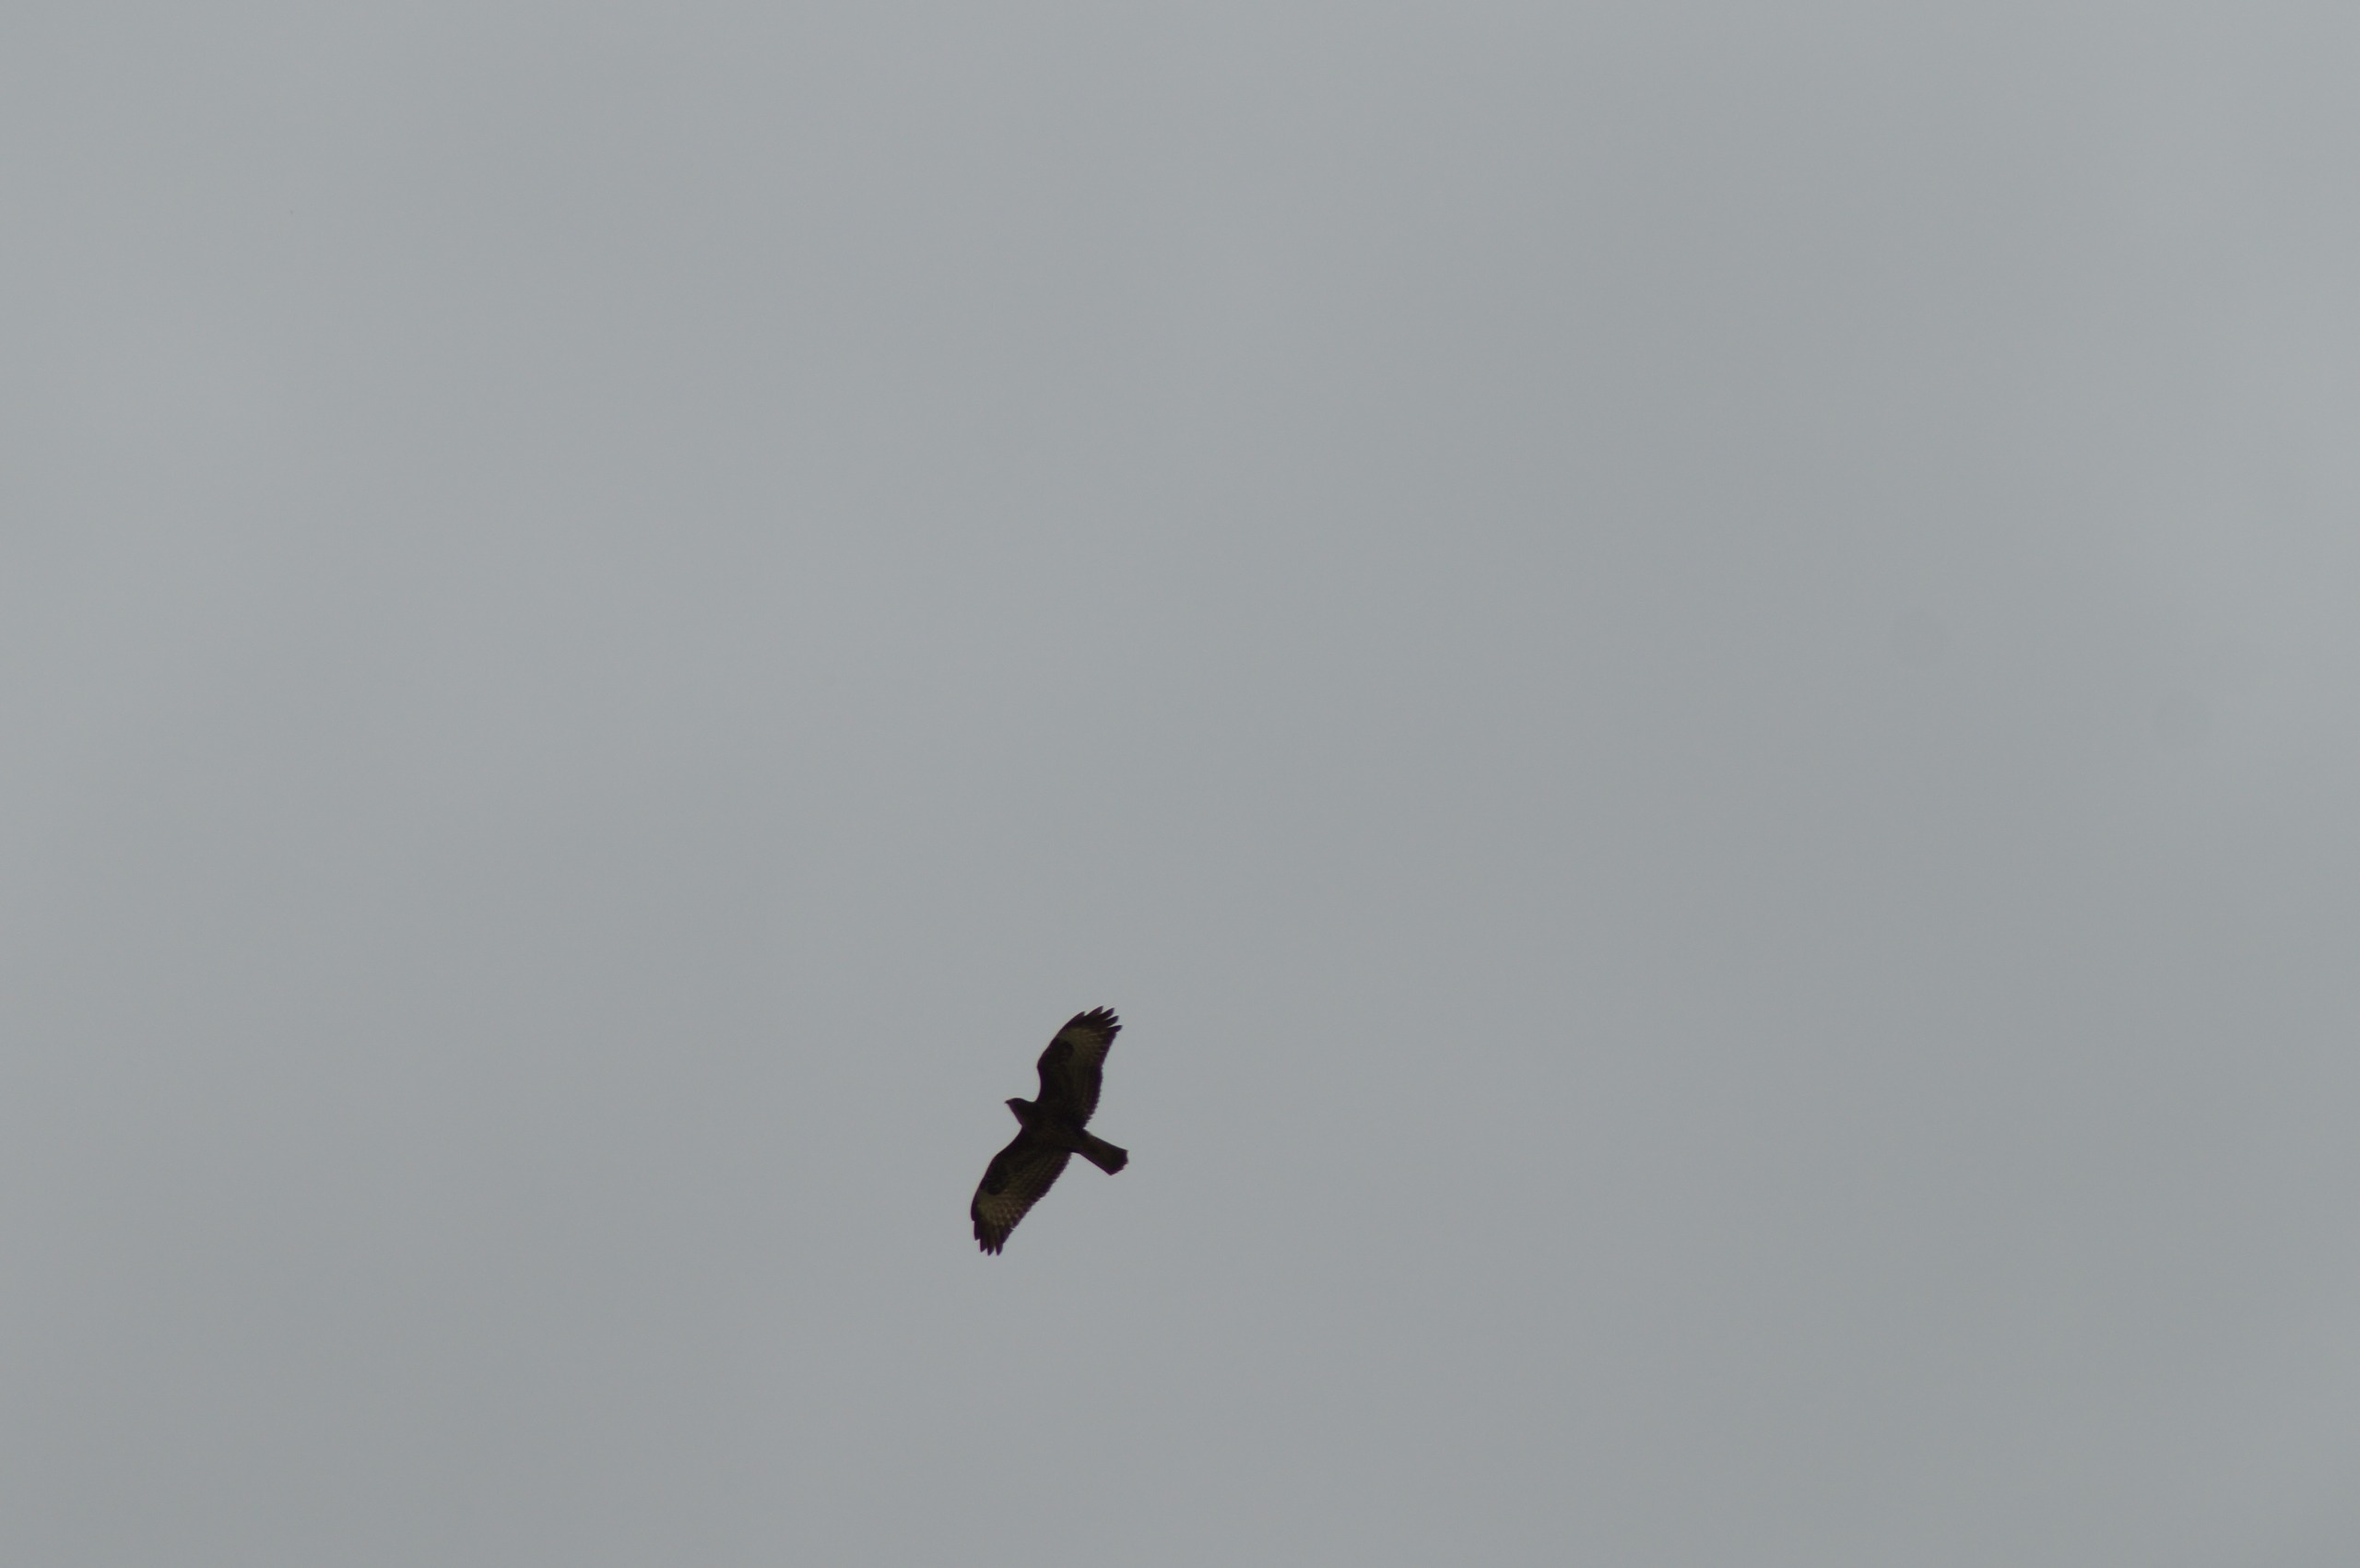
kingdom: Animalia
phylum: Chordata
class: Aves
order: Accipitriformes
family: Accipitridae
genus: Buteo
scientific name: Buteo buteo
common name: Musvåge
